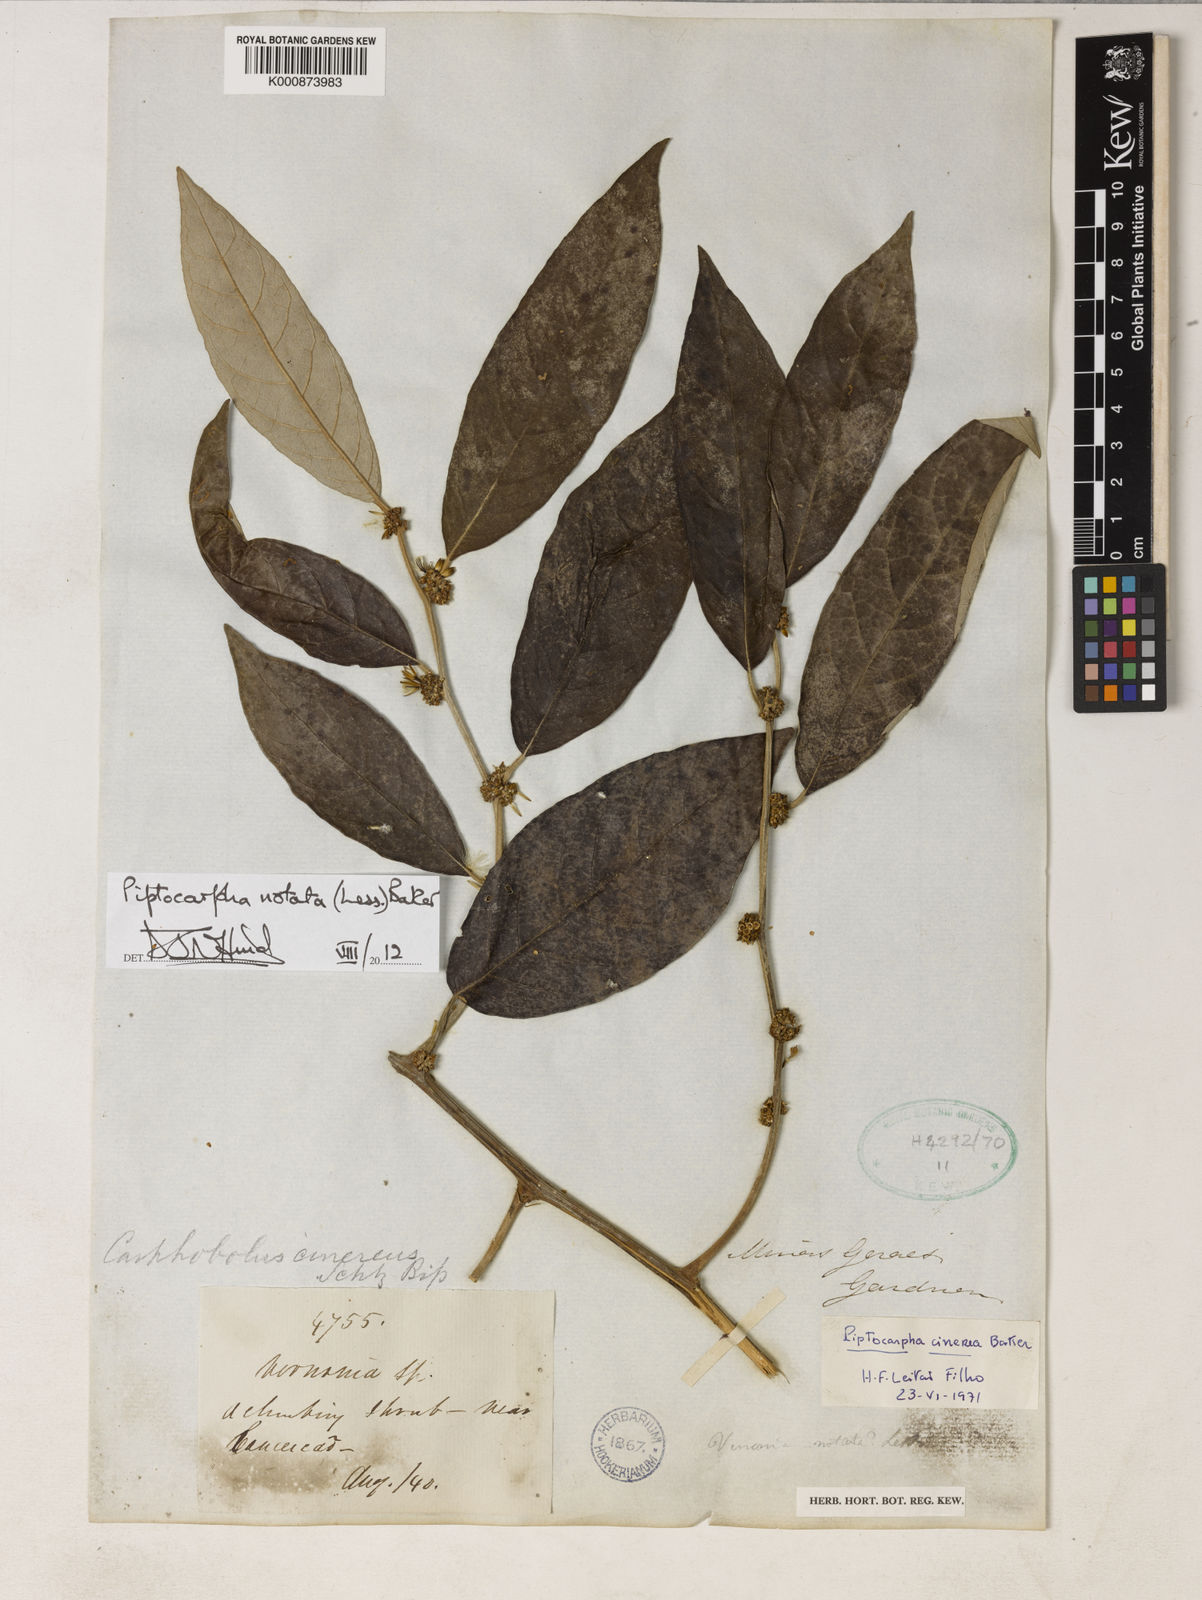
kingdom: Plantae
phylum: Tracheophyta
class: Magnoliopsida
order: Asterales
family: Asteraceae
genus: Piptocarpha
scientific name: Piptocarpha notata
